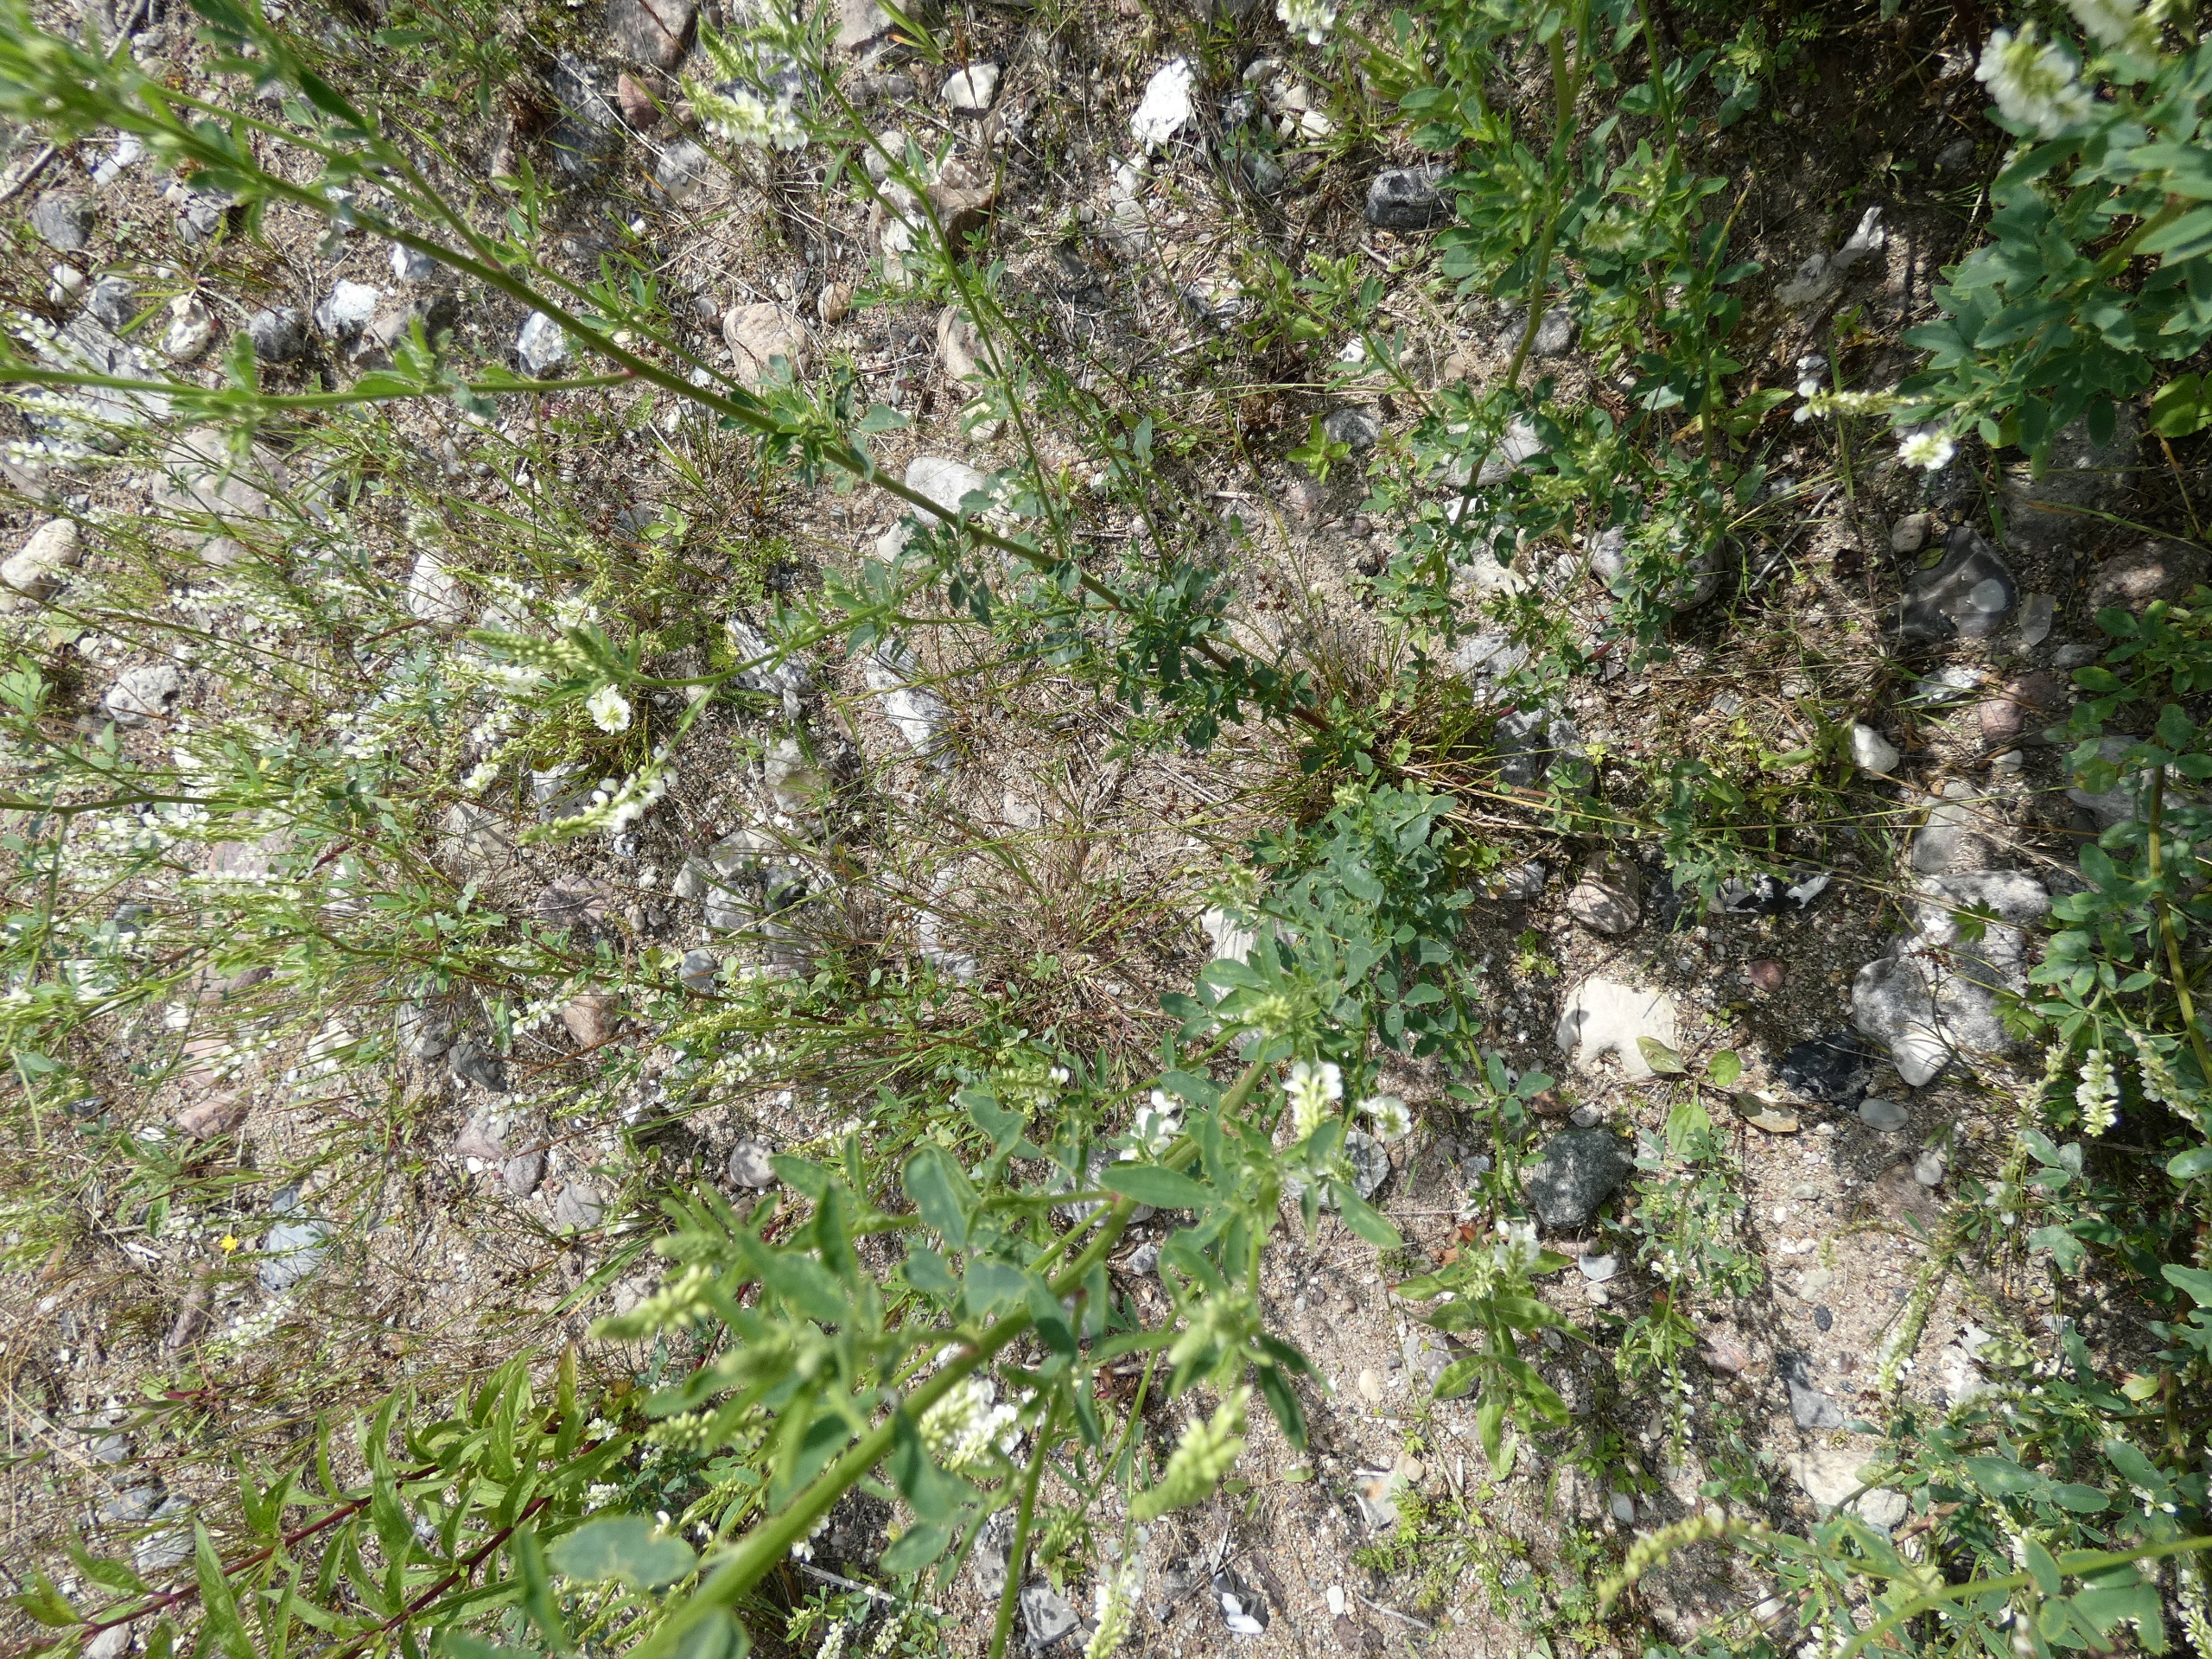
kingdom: Plantae
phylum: Tracheophyta
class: Magnoliopsida
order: Fabales
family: Fabaceae
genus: Melilotus
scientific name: Melilotus albus
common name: Hvid stenkløver
